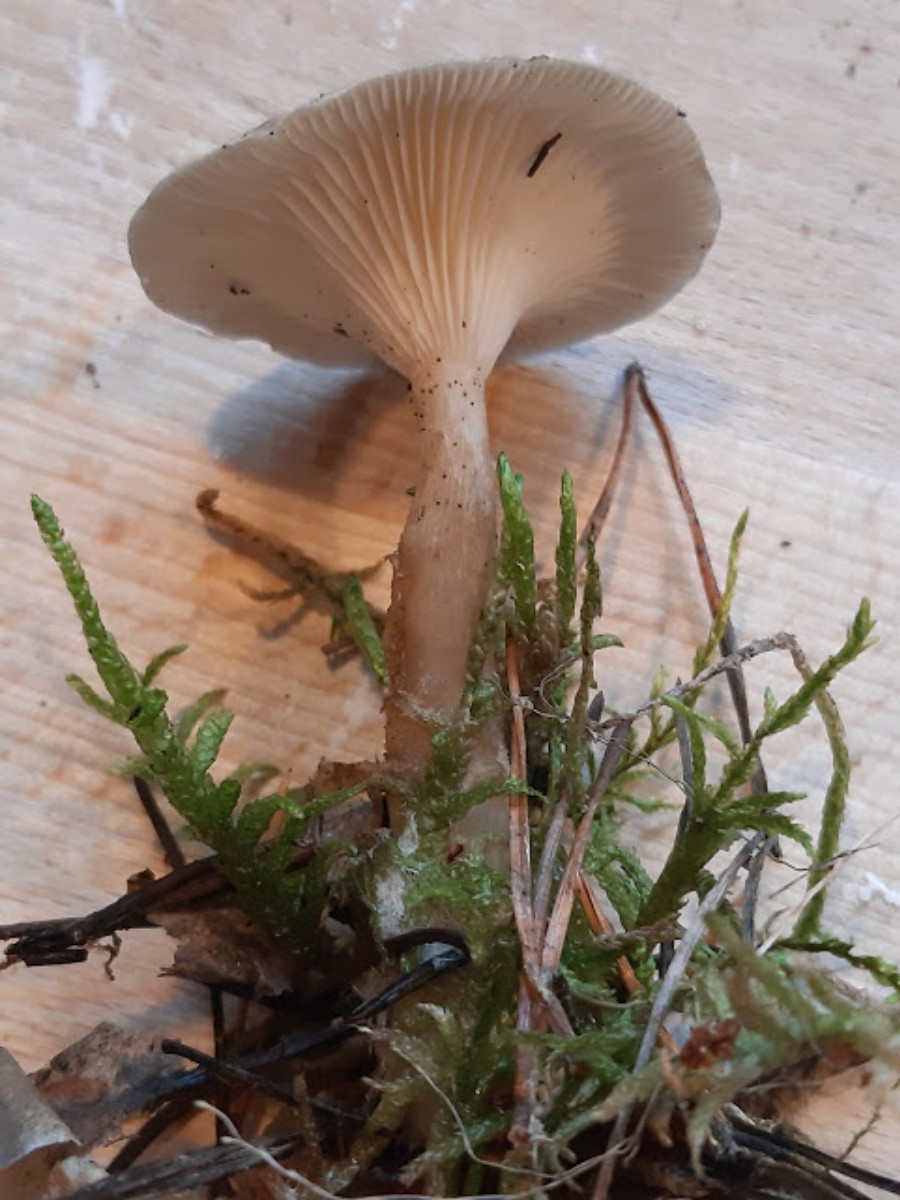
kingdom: Fungi
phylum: Basidiomycota
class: Agaricomycetes
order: Agaricales
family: Hygrophoraceae
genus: Ampulloclitocybe
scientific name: Ampulloclitocybe clavipes
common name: køllefod
